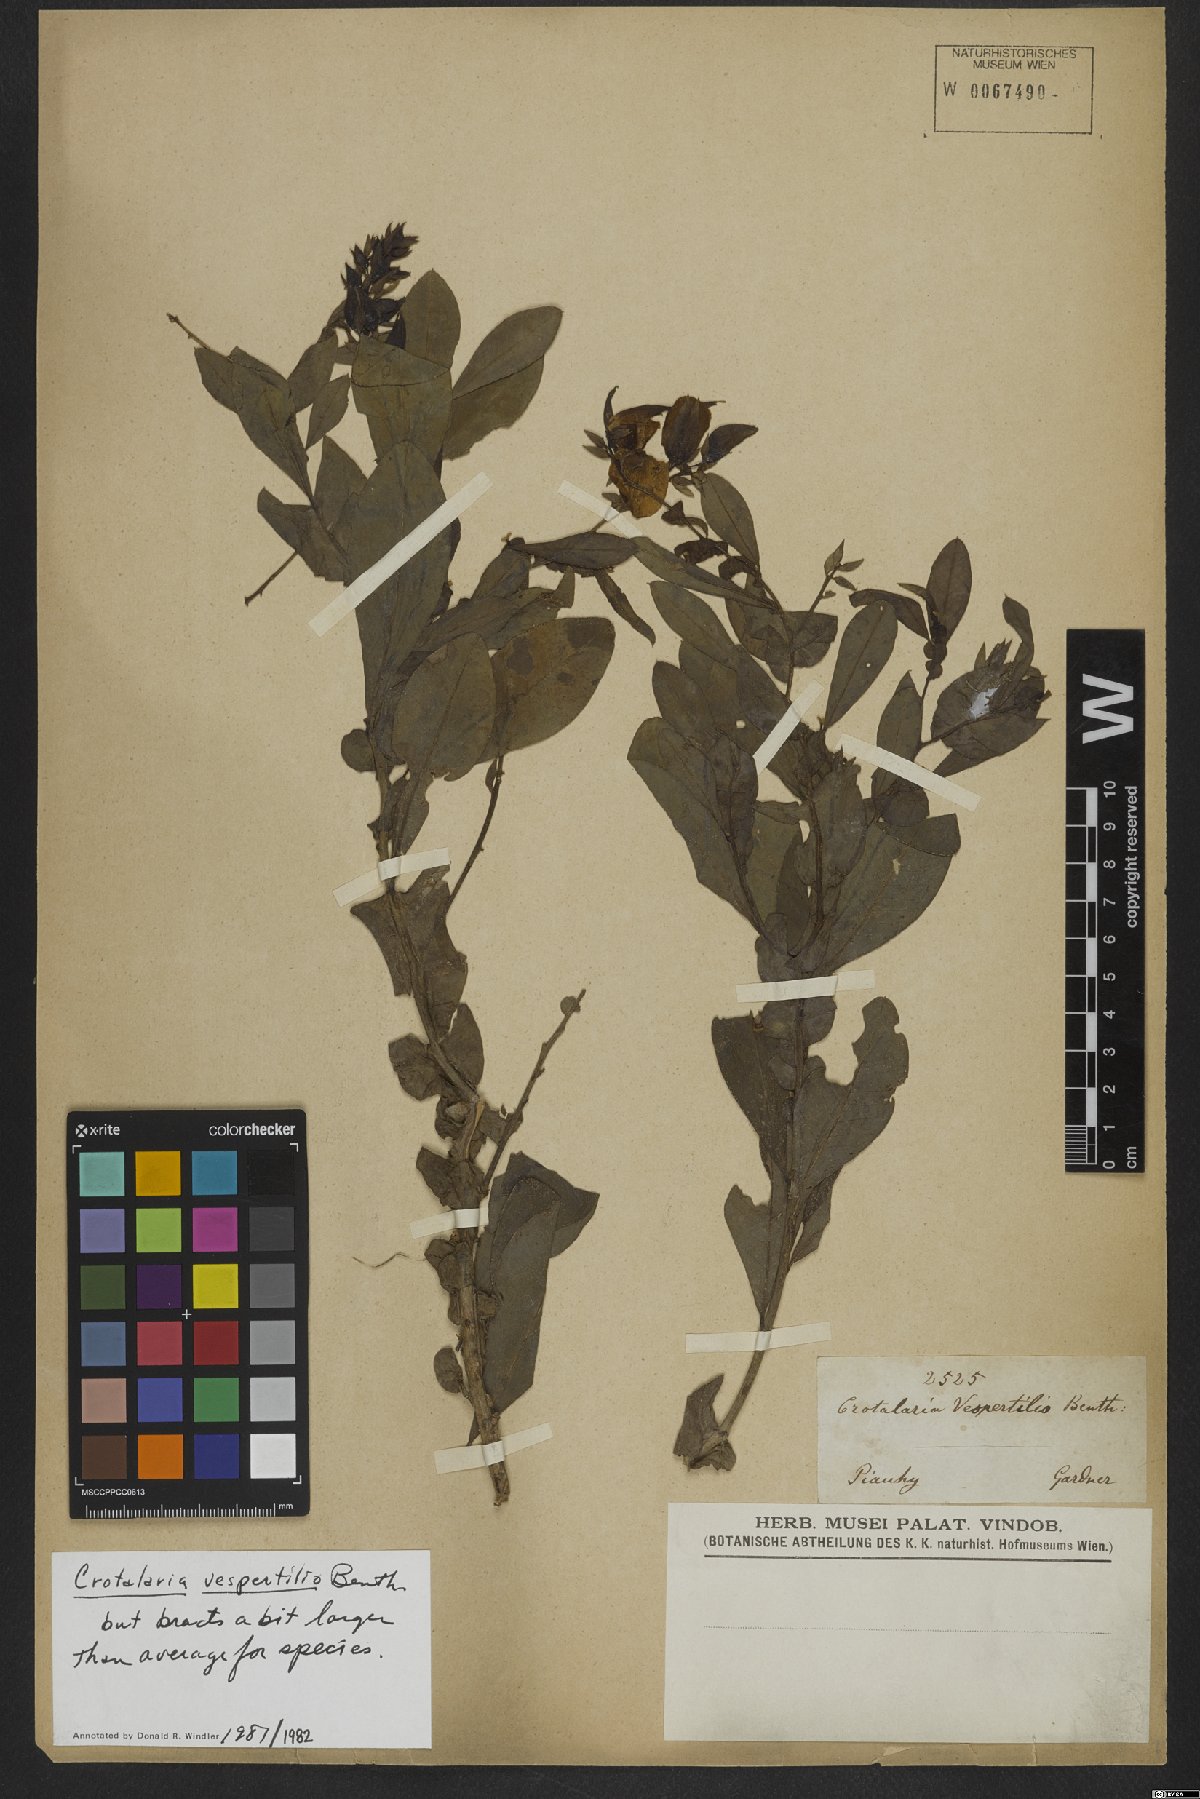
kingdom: Plantae
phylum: Tracheophyta
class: Magnoliopsida
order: Fabales
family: Fabaceae
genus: Crotalaria
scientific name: Crotalaria vespertilio
